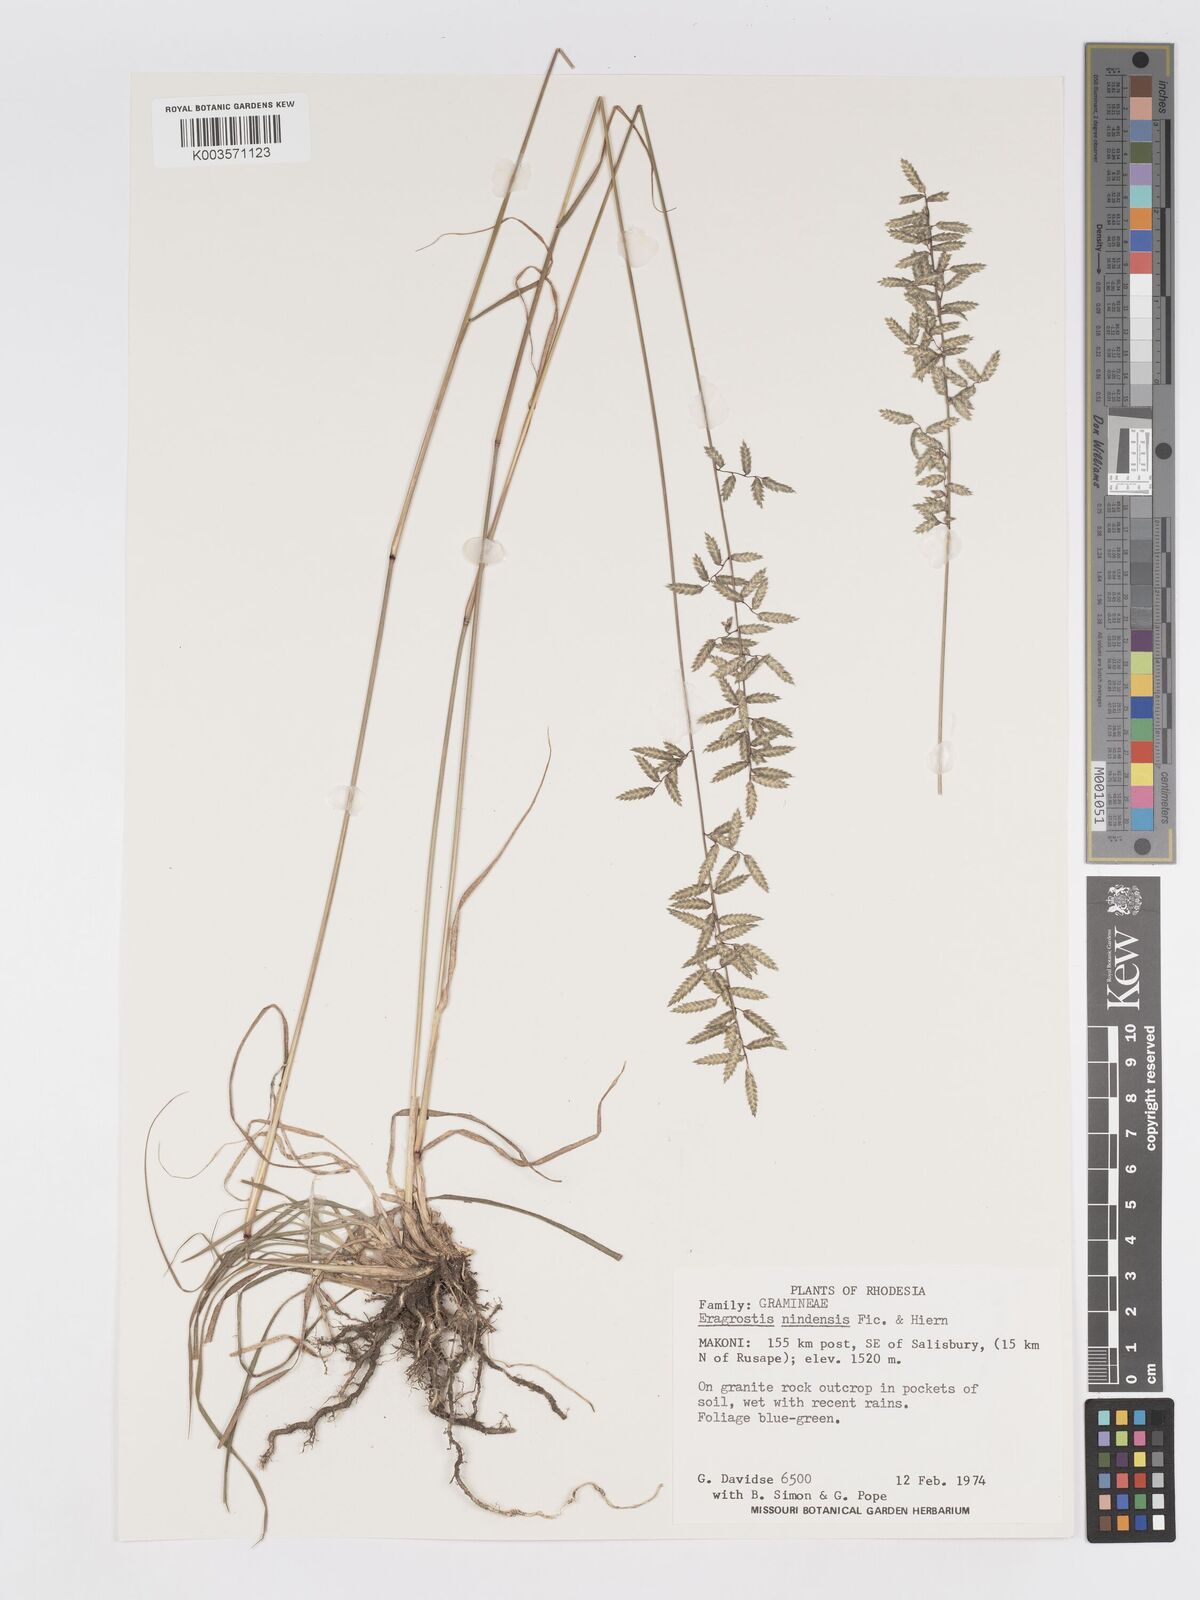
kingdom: Plantae
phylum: Tracheophyta
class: Liliopsida
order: Poales
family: Poaceae
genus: Eragrostis
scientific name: Eragrostis nindensis
